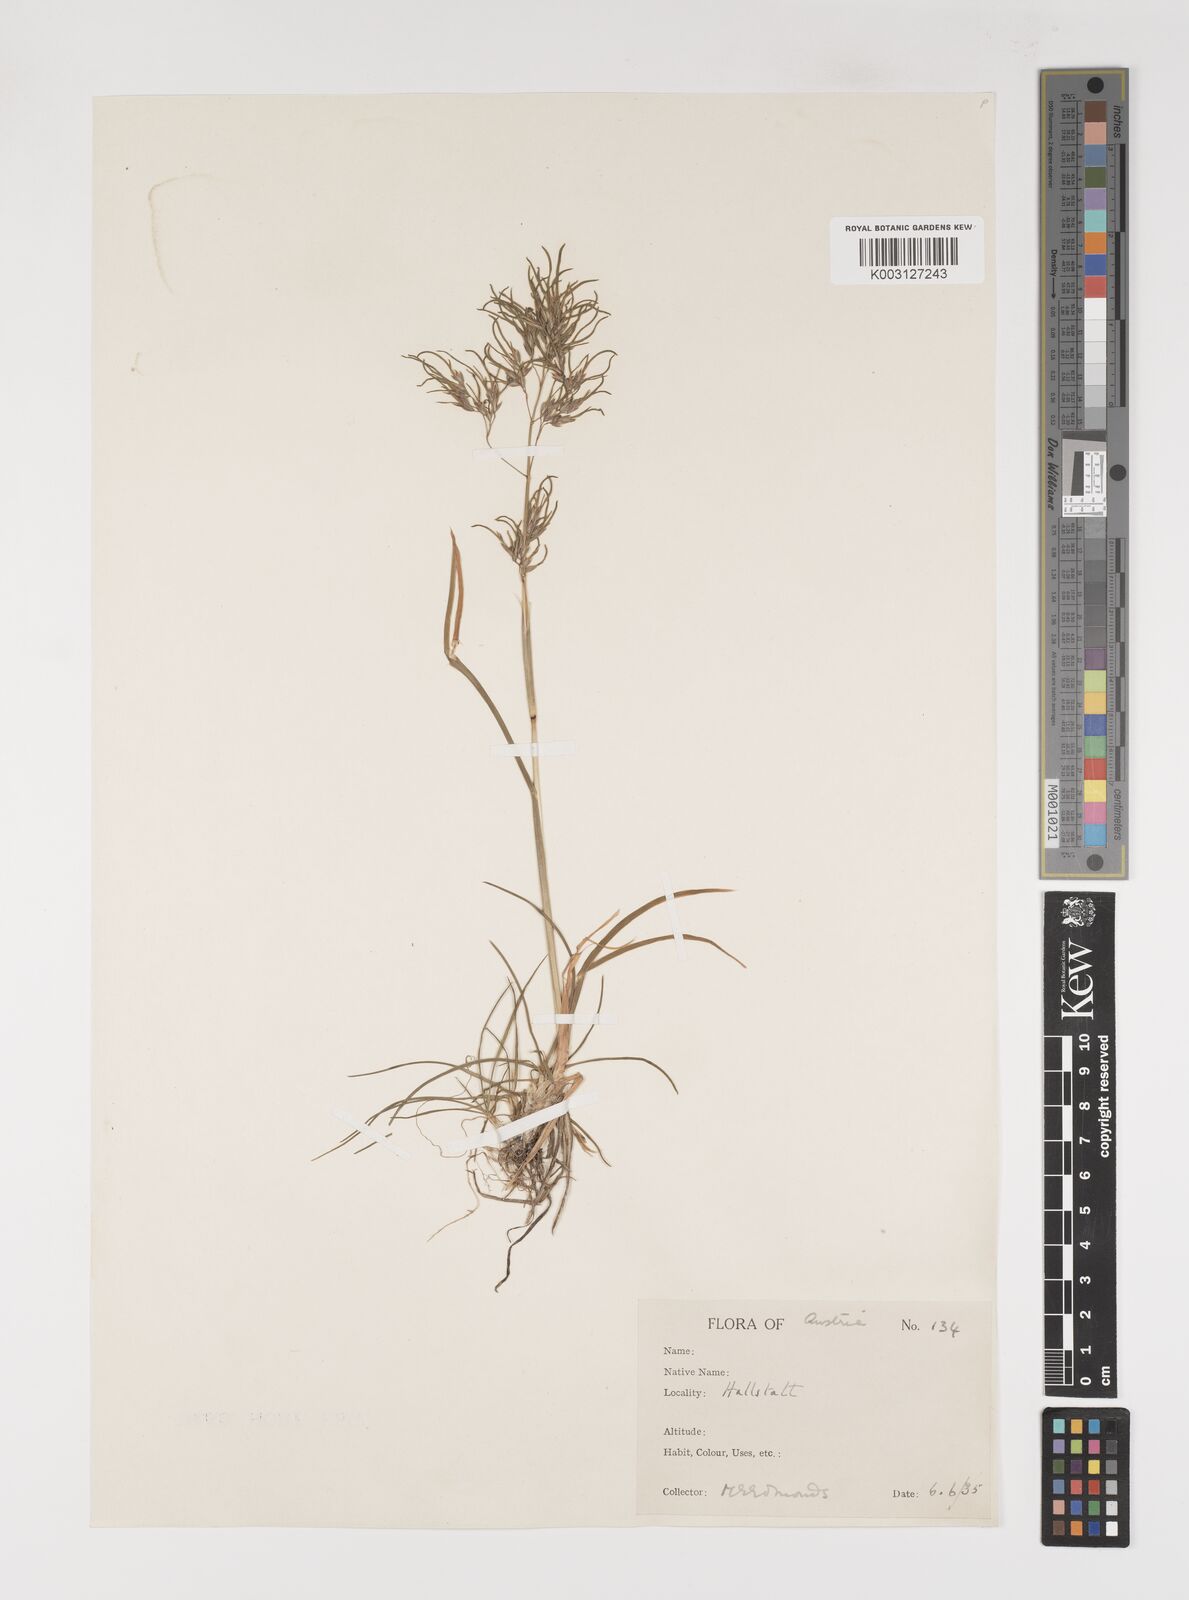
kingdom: Plantae
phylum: Tracheophyta
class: Liliopsida
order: Poales
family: Poaceae
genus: Poa
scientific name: Poa alpina
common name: Alpine bluegrass
